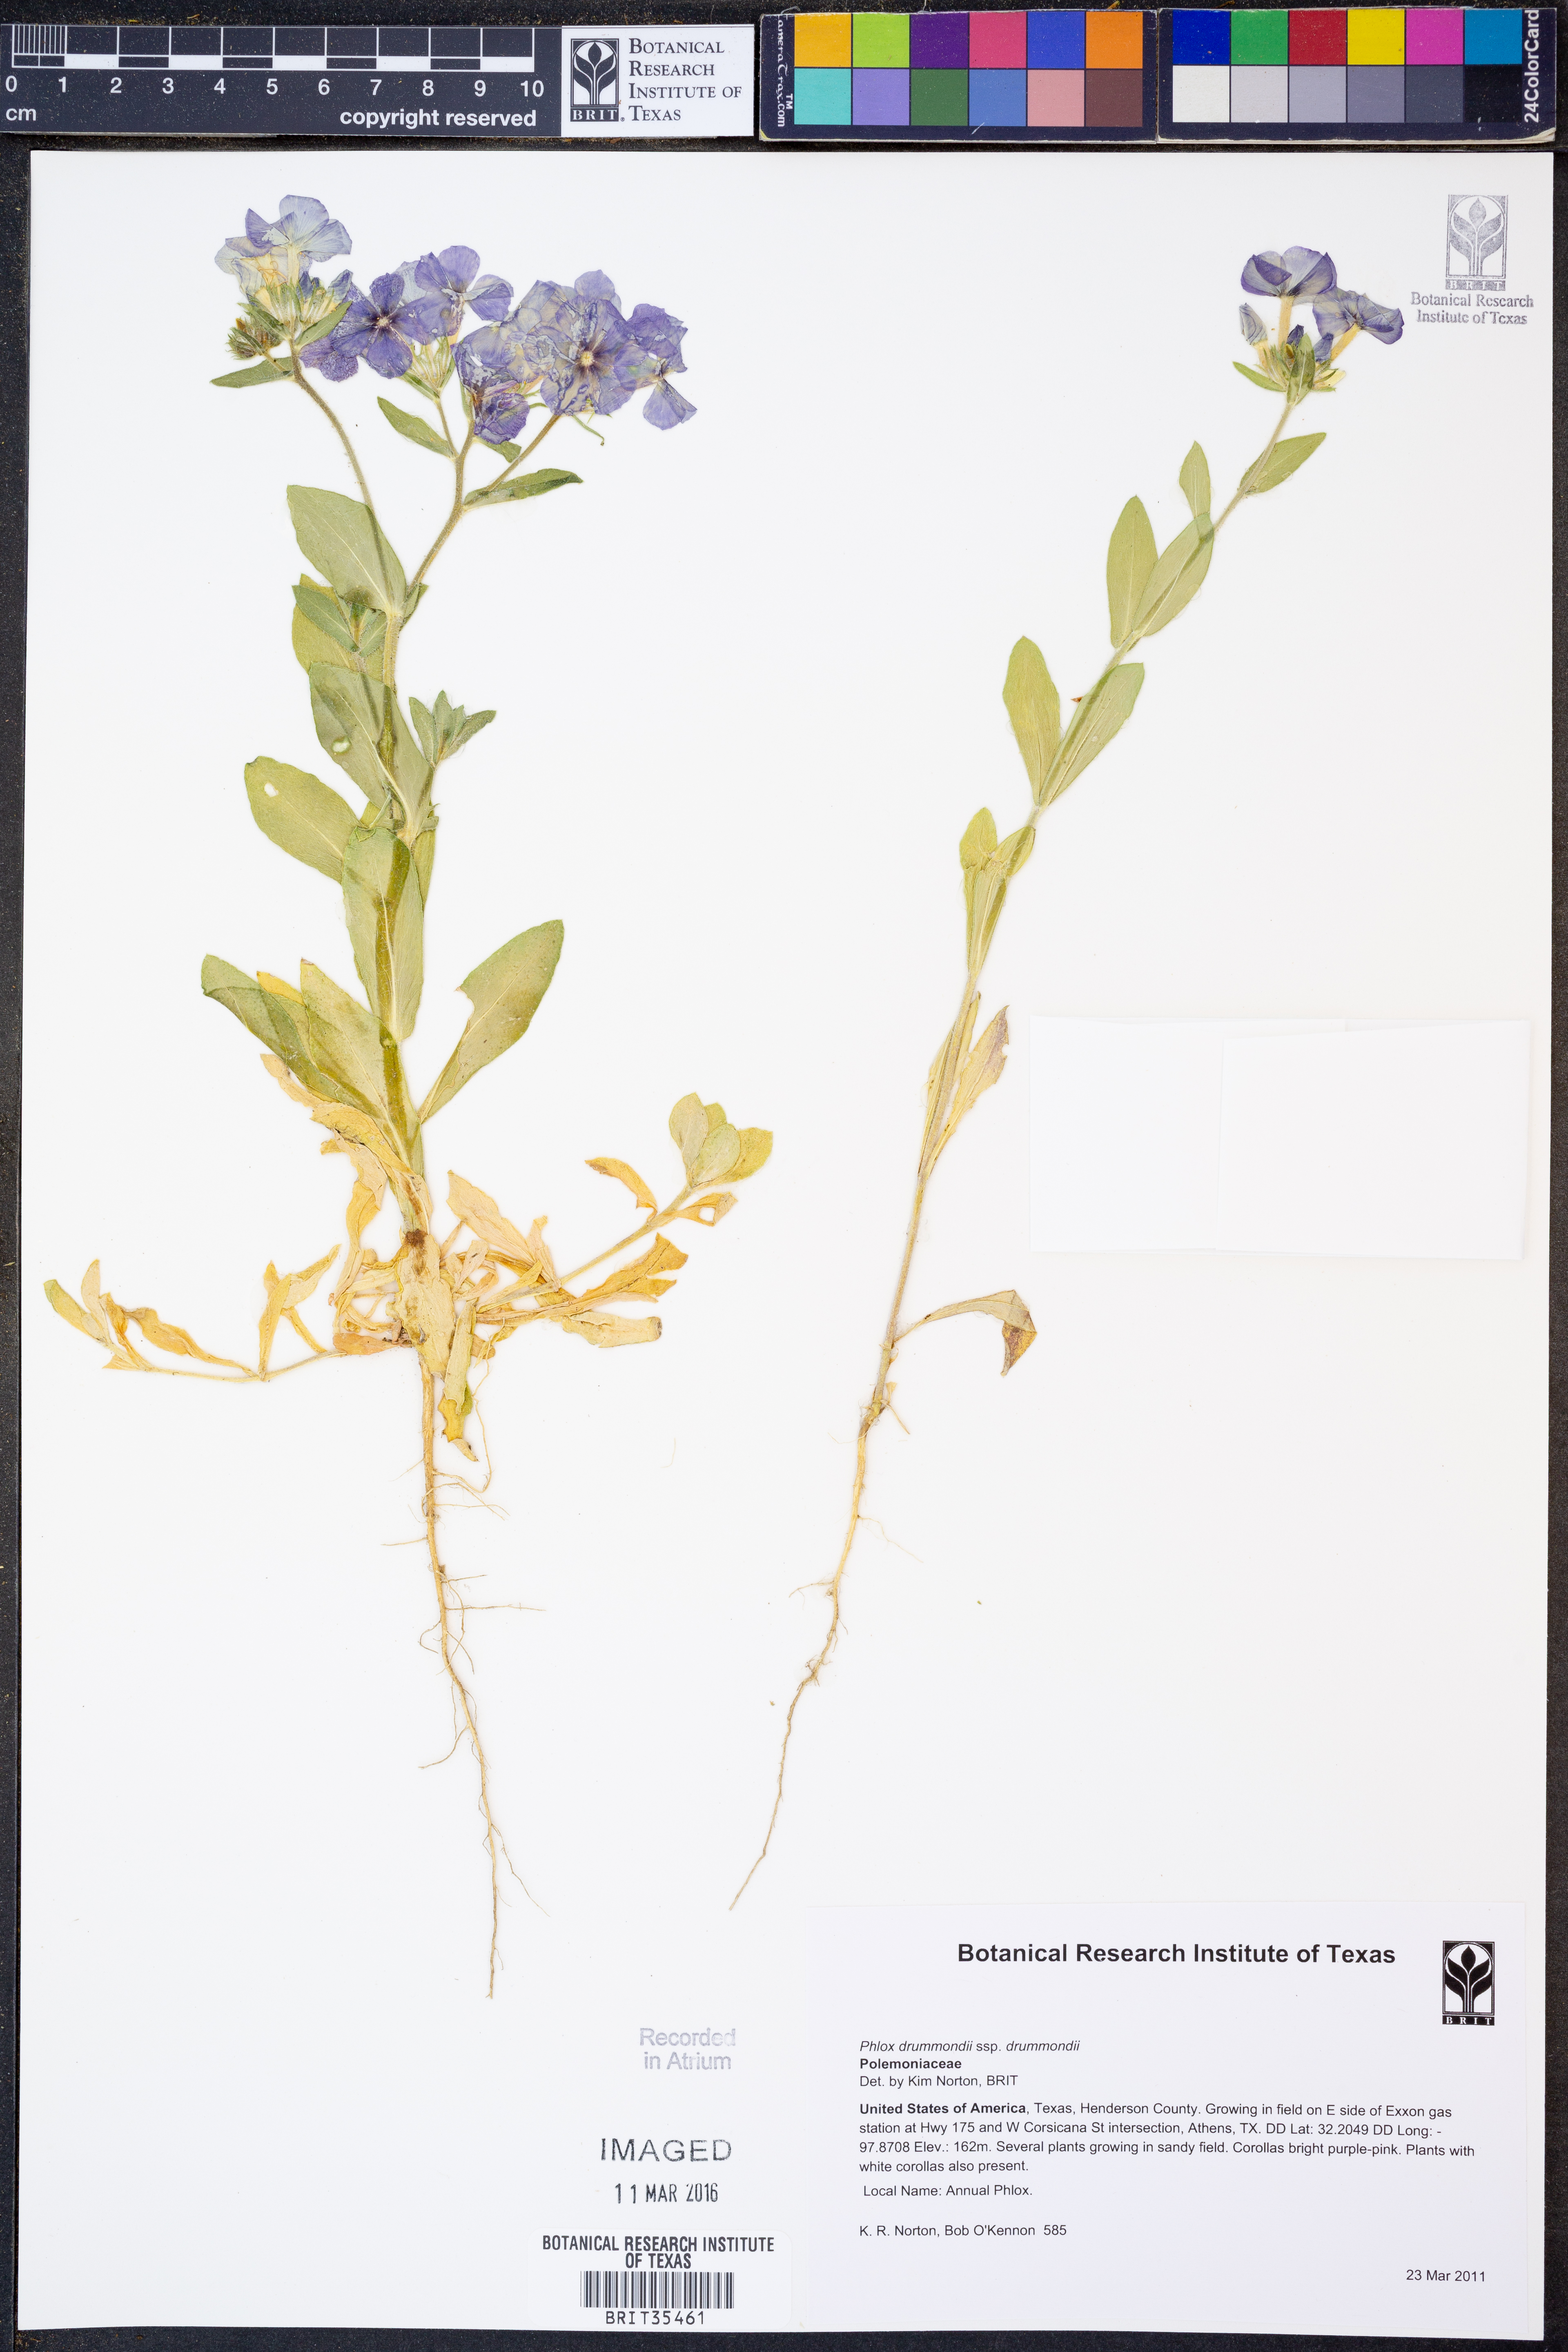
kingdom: Plantae
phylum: Tracheophyta
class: Magnoliopsida
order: Ericales
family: Polemoniaceae
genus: Phlox
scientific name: Phlox drummondii
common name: Drummond's phlox
